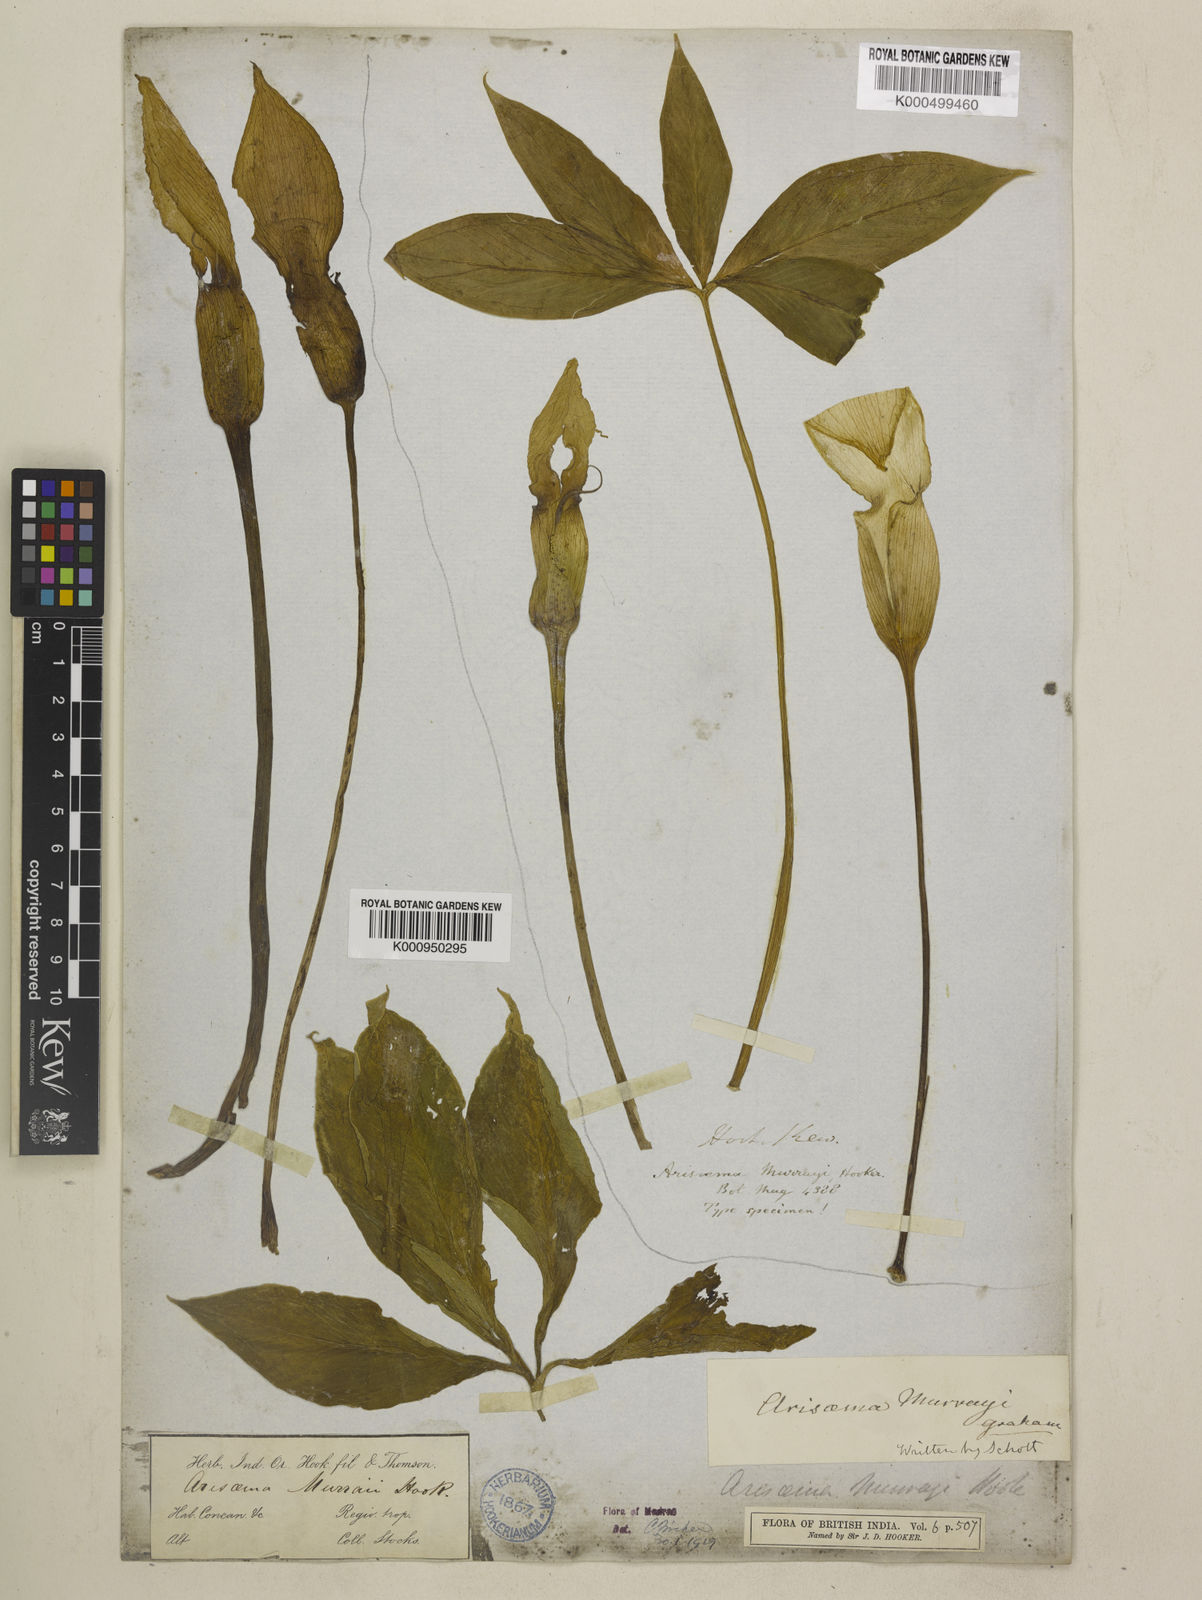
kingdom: Plantae
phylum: Tracheophyta
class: Liliopsida
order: Alismatales
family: Araceae
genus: Arisaema
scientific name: Arisaema murrayi
